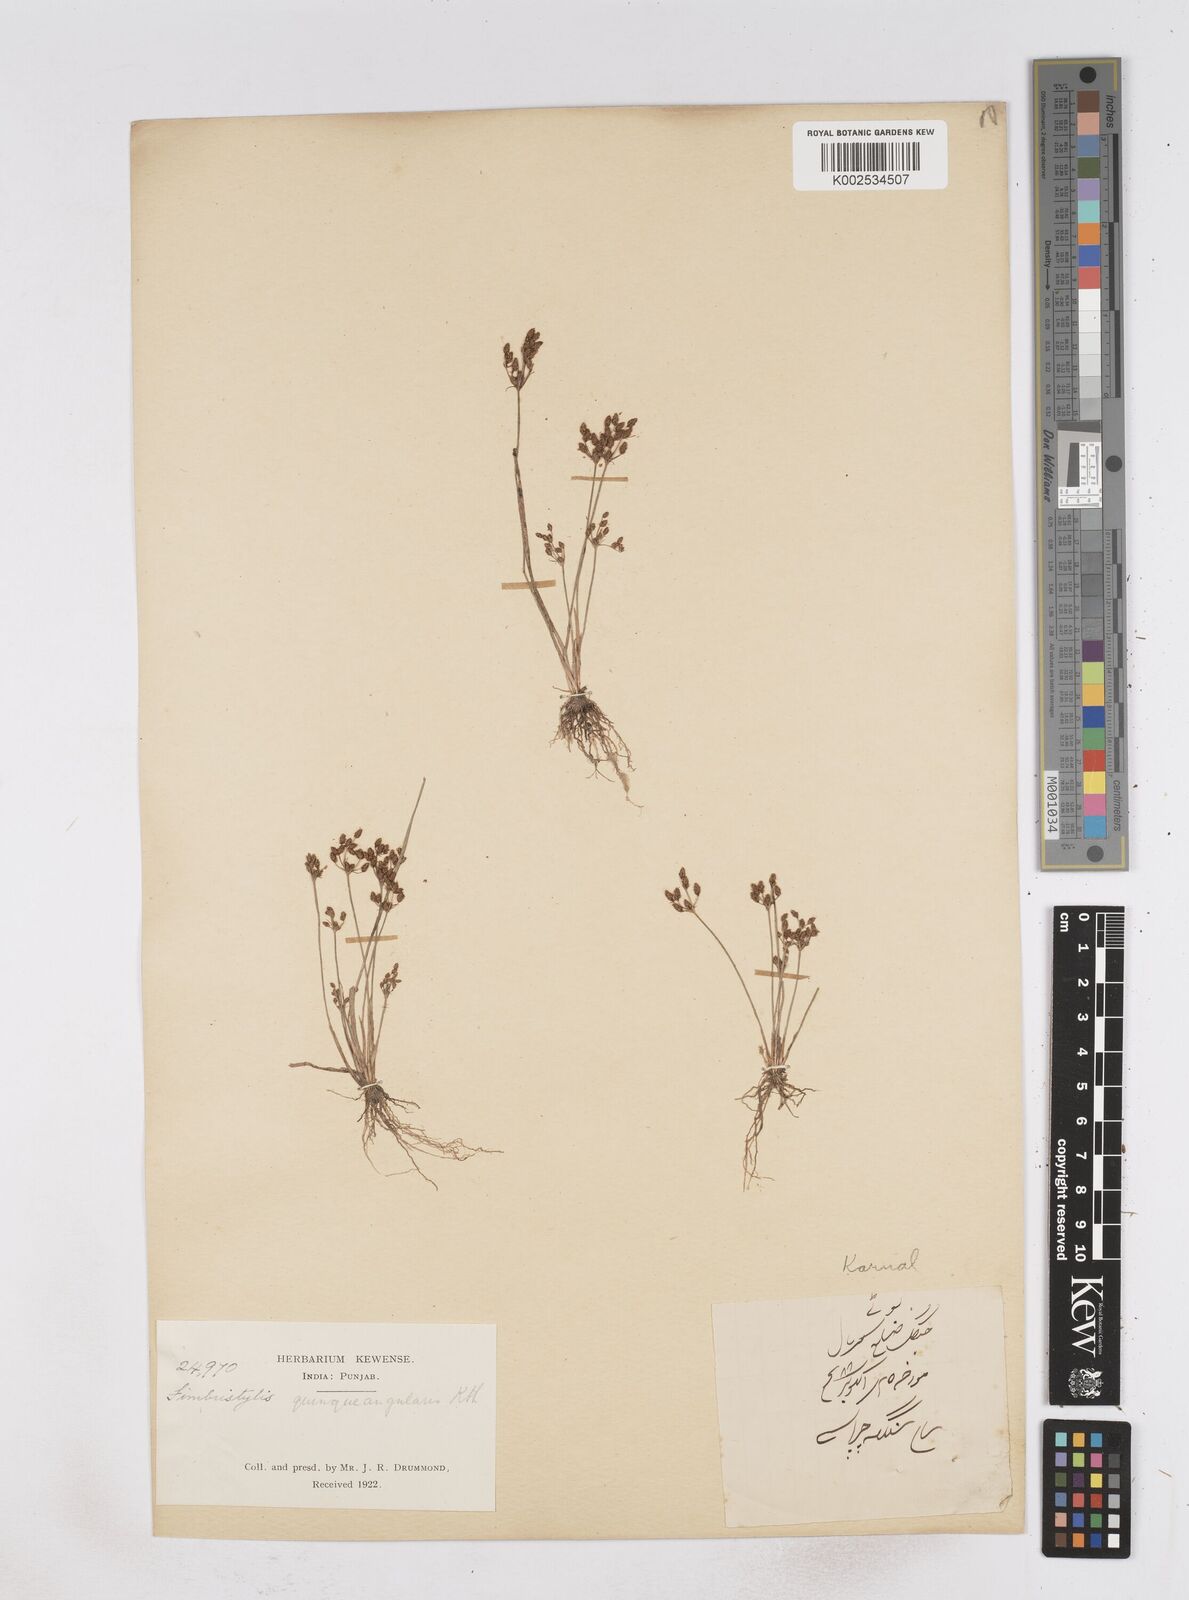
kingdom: Plantae
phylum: Tracheophyta
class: Liliopsida
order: Poales
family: Cyperaceae
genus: Fimbristylis
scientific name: Fimbristylis quinquangularis
